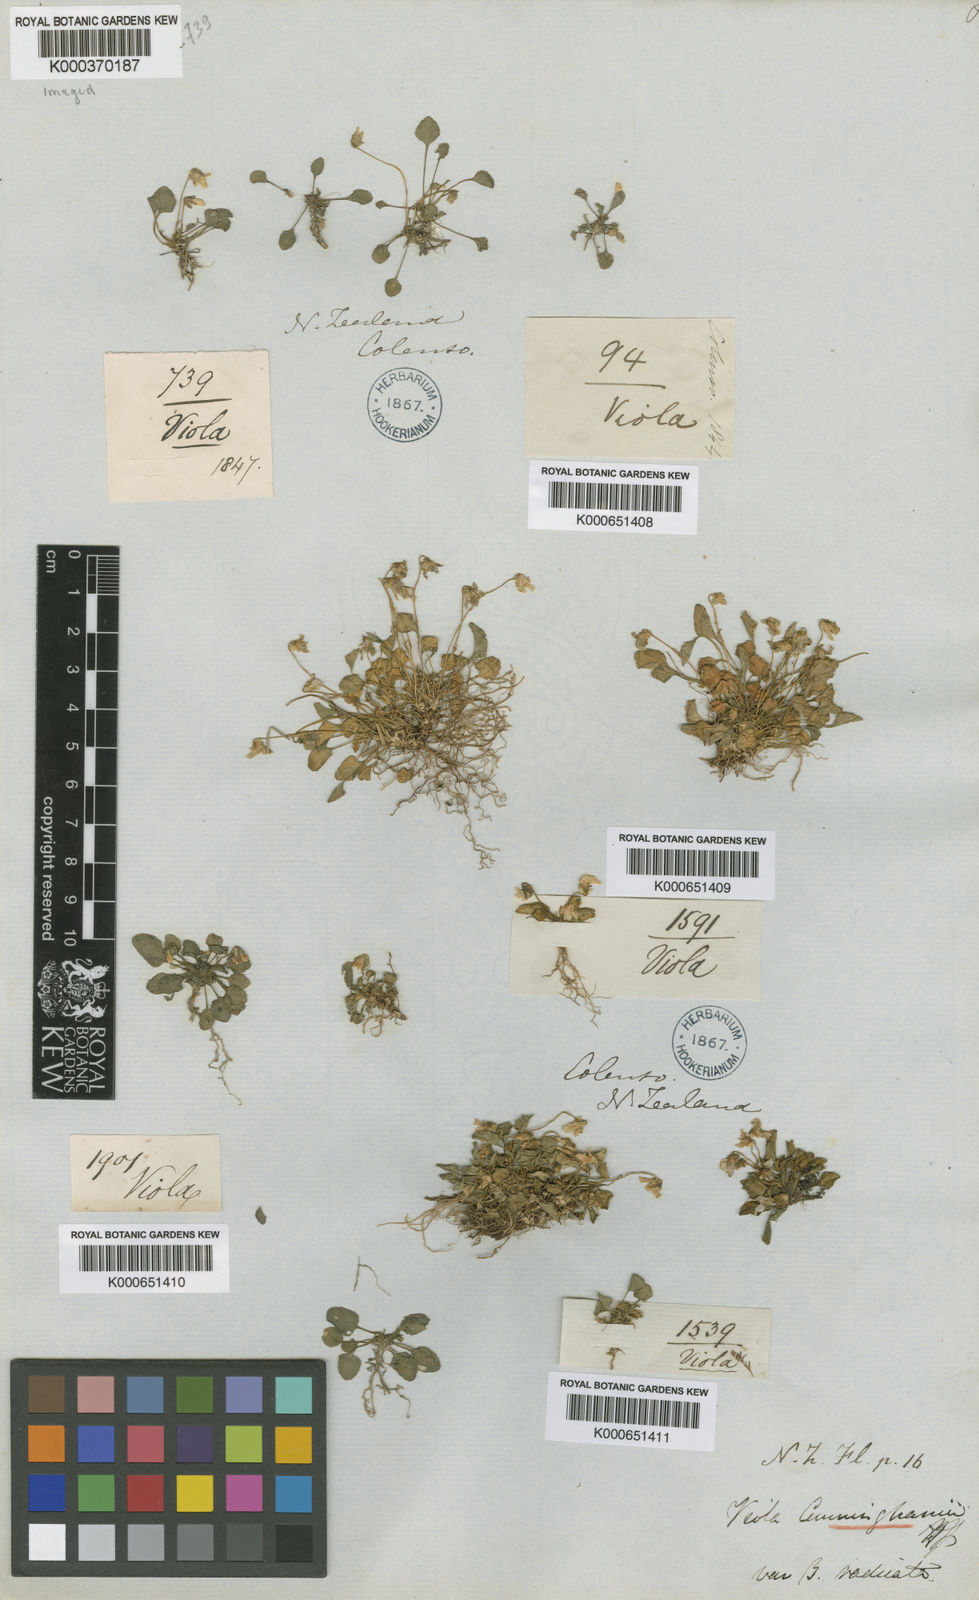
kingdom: Plantae
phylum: Tracheophyta
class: Magnoliopsida
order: Malpighiales
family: Violaceae
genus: Viola
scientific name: Viola cunninghamii
